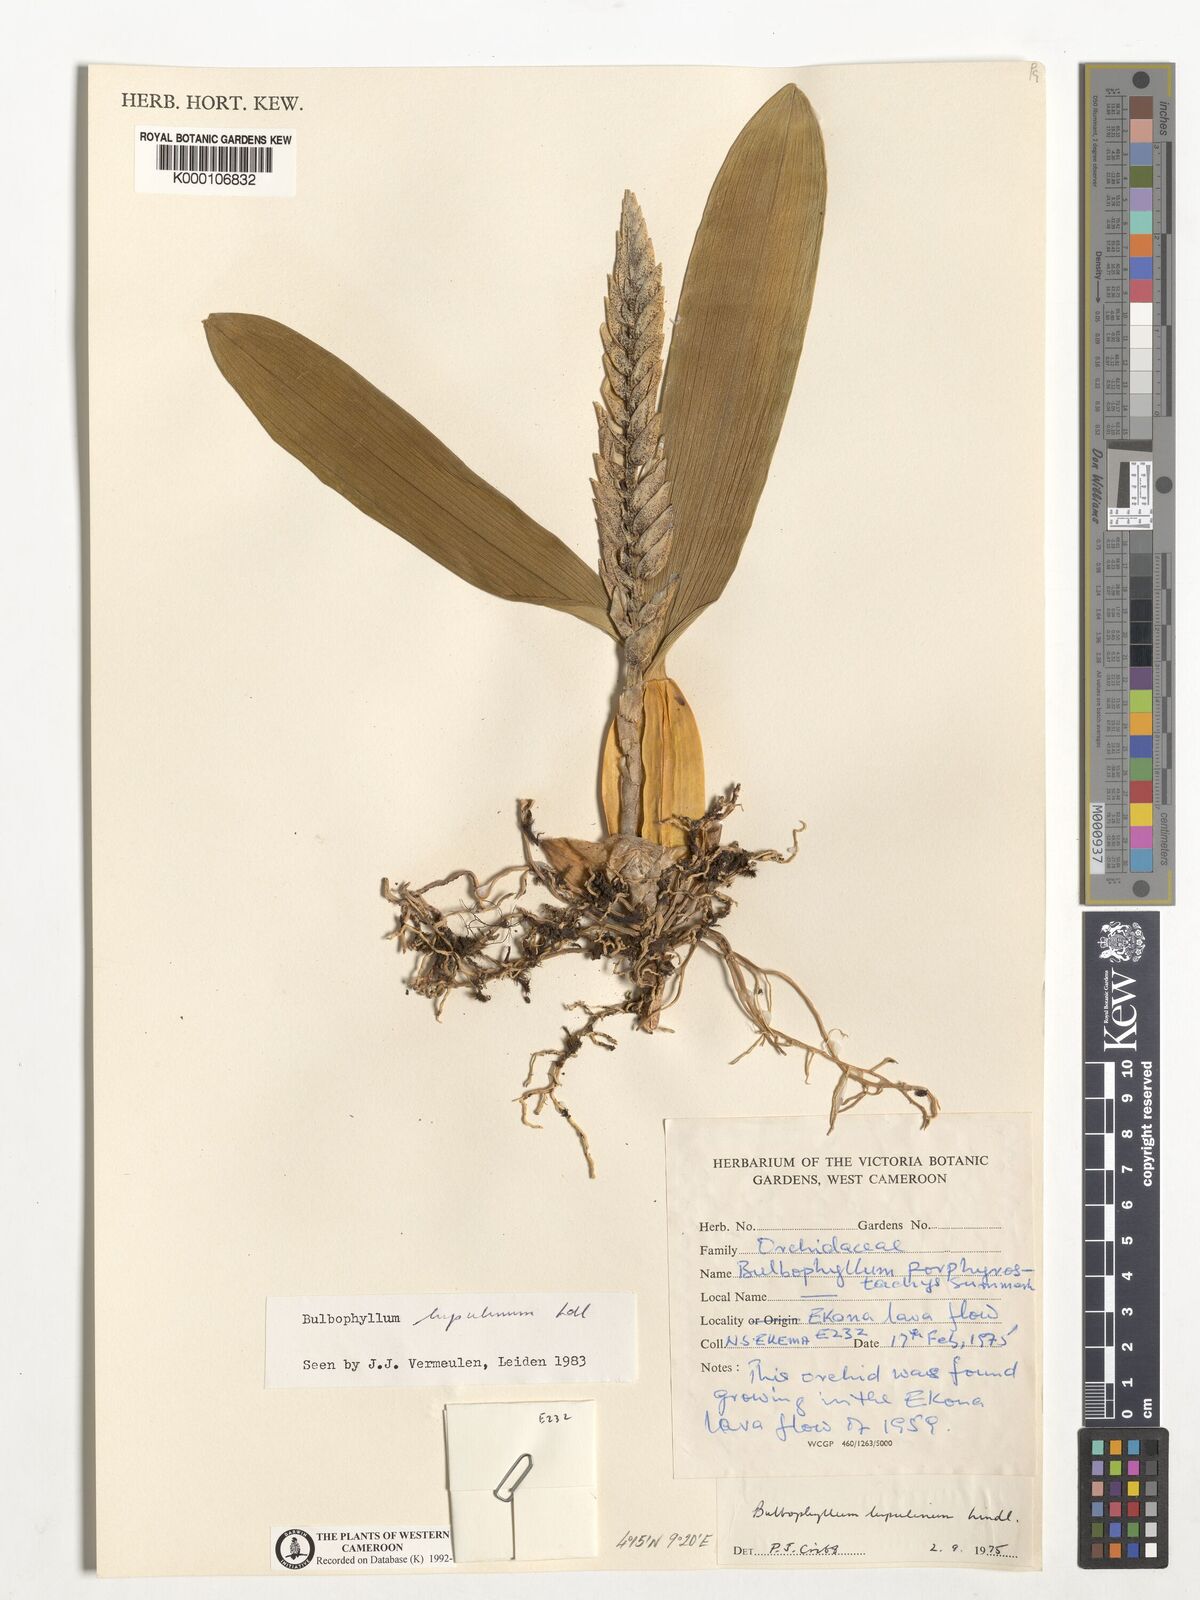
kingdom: Plantae
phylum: Tracheophyta
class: Liliopsida
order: Asparagales
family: Orchidaceae
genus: Bulbophyllum
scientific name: Bulbophyllum lupulinum
